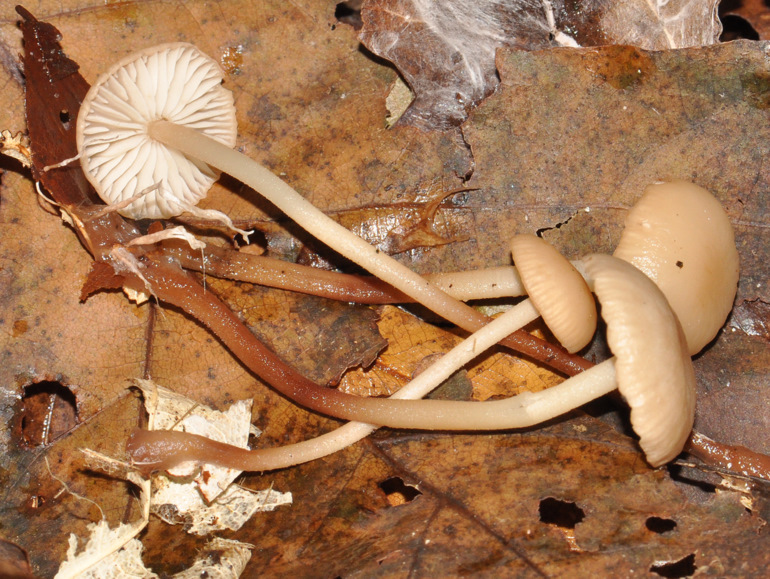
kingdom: Fungi
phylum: Basidiomycota
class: Agaricomycetes
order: Agaricales
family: Omphalotaceae
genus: Mycetinis
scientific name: Mycetinis querceus
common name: ege-løghat
